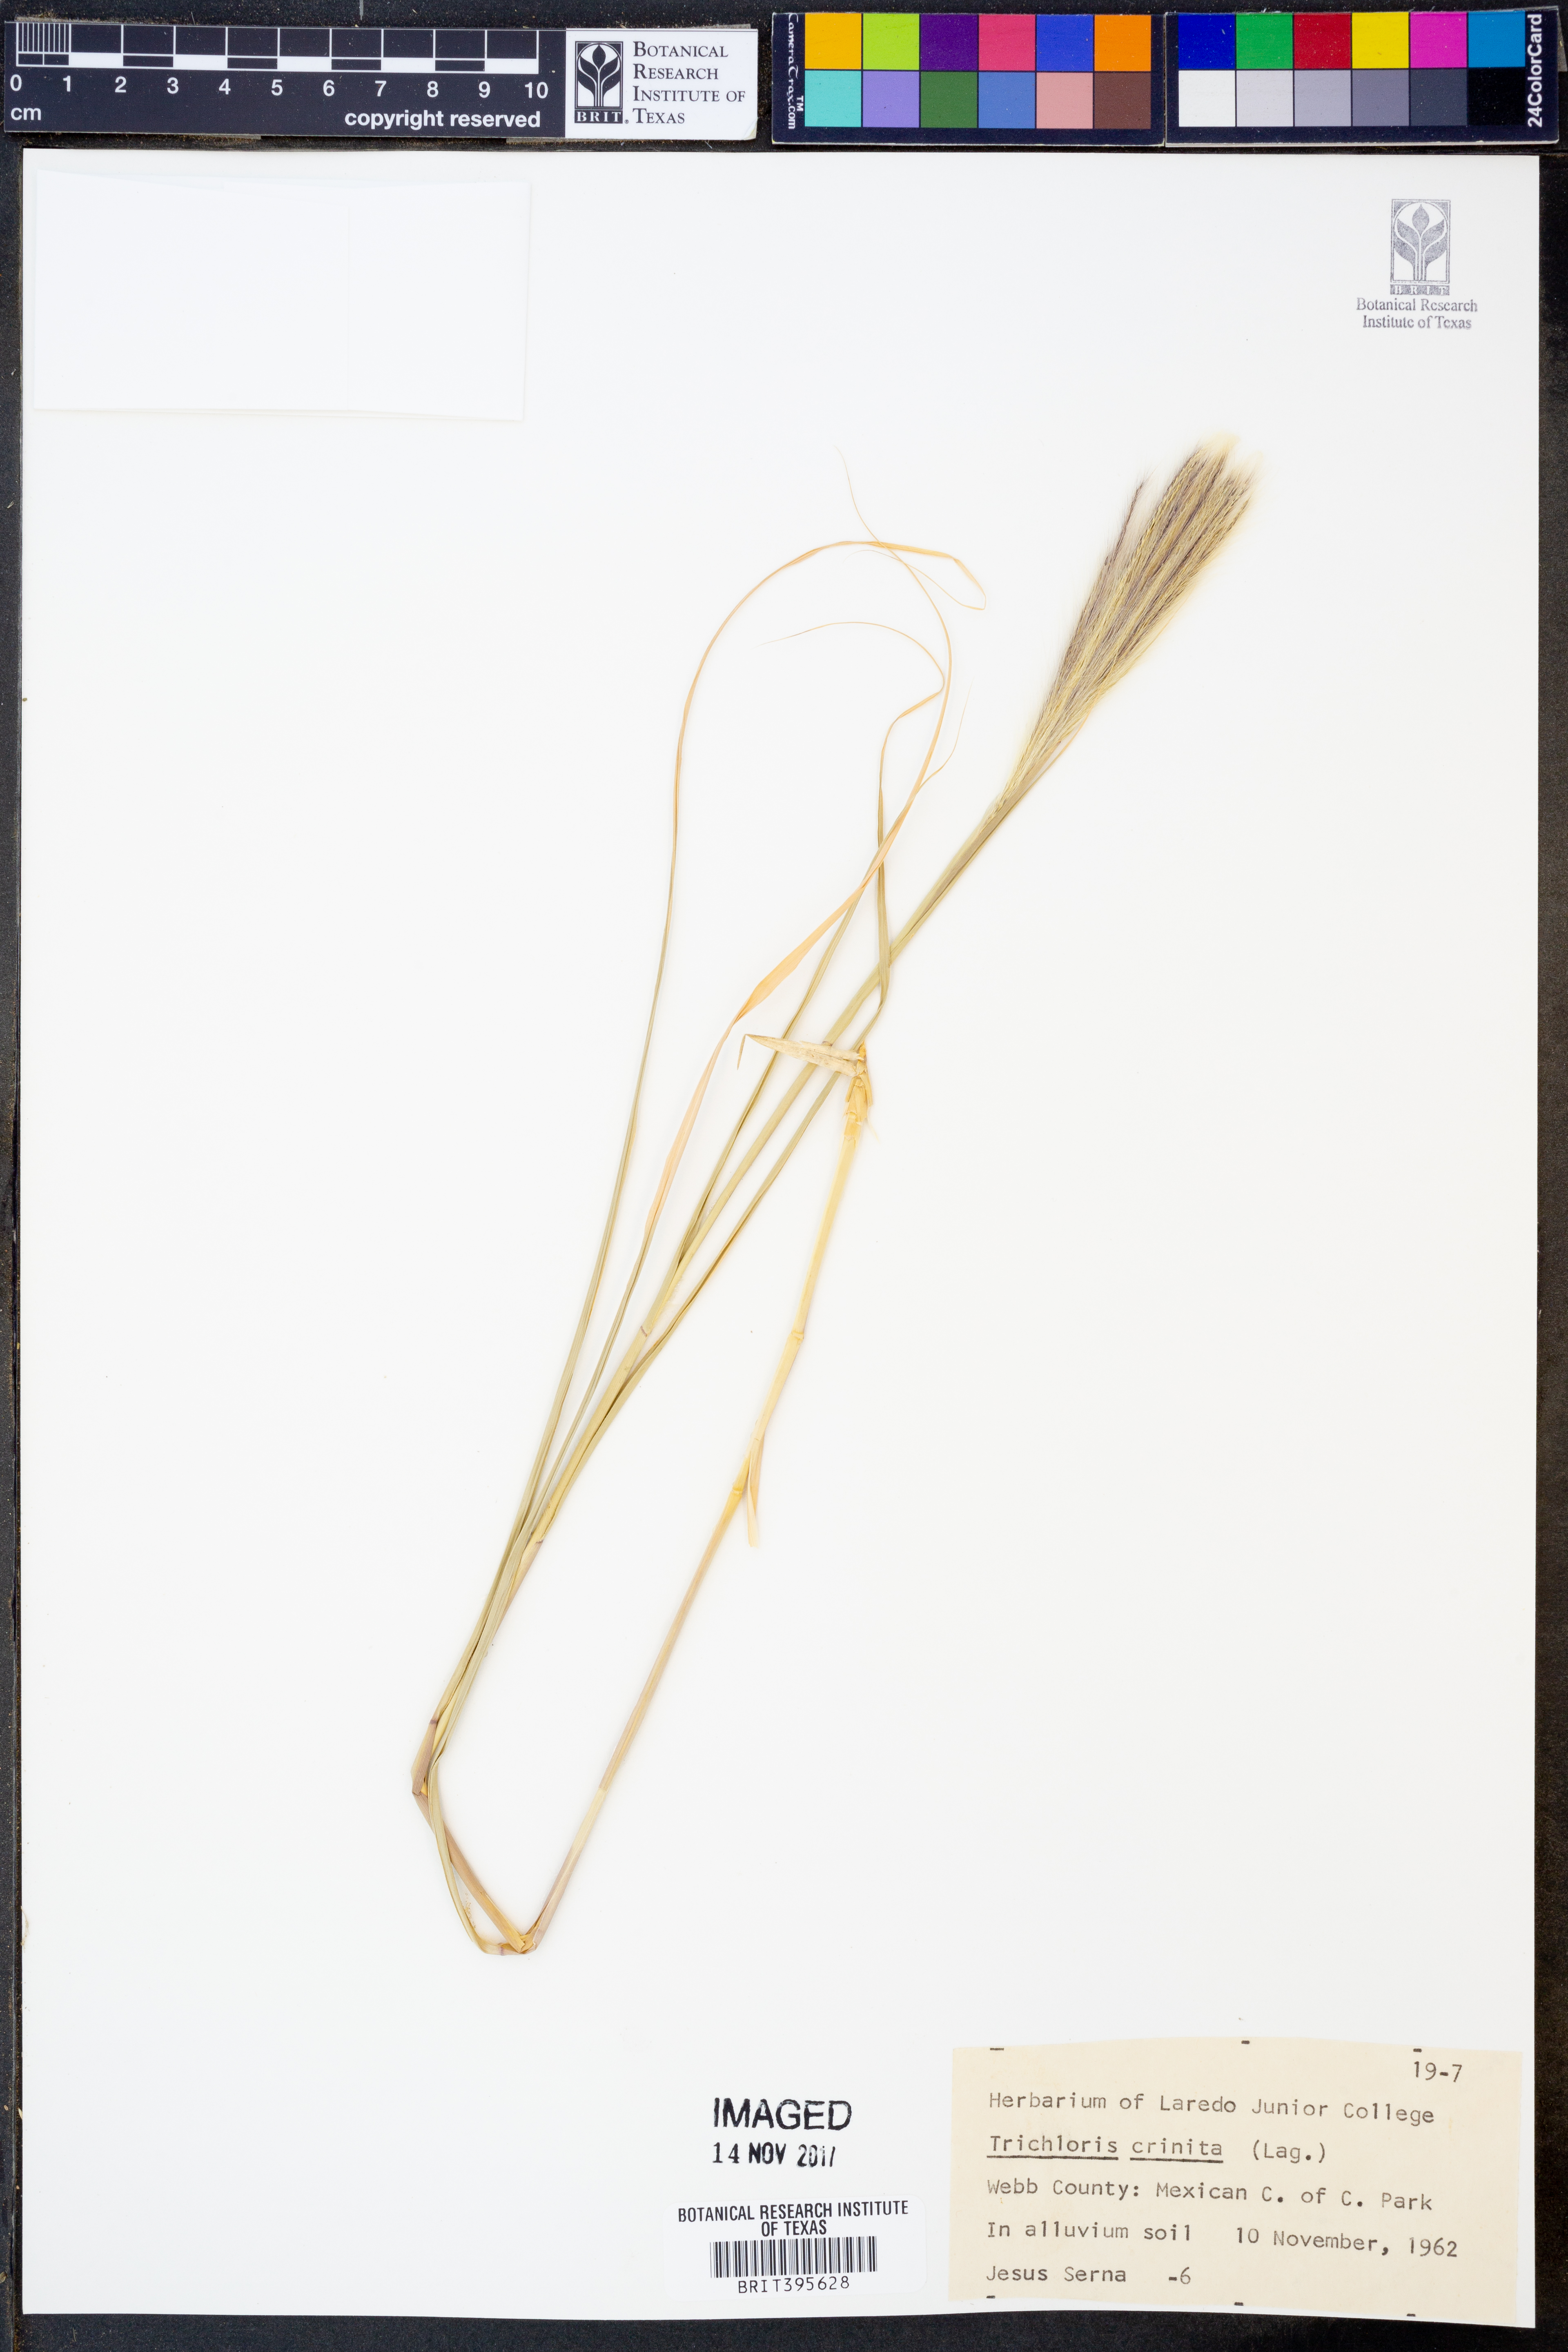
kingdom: Plantae
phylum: Tracheophyta
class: Liliopsida
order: Poales
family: Poaceae
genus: Leptochloa
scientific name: Leptochloa crinita
